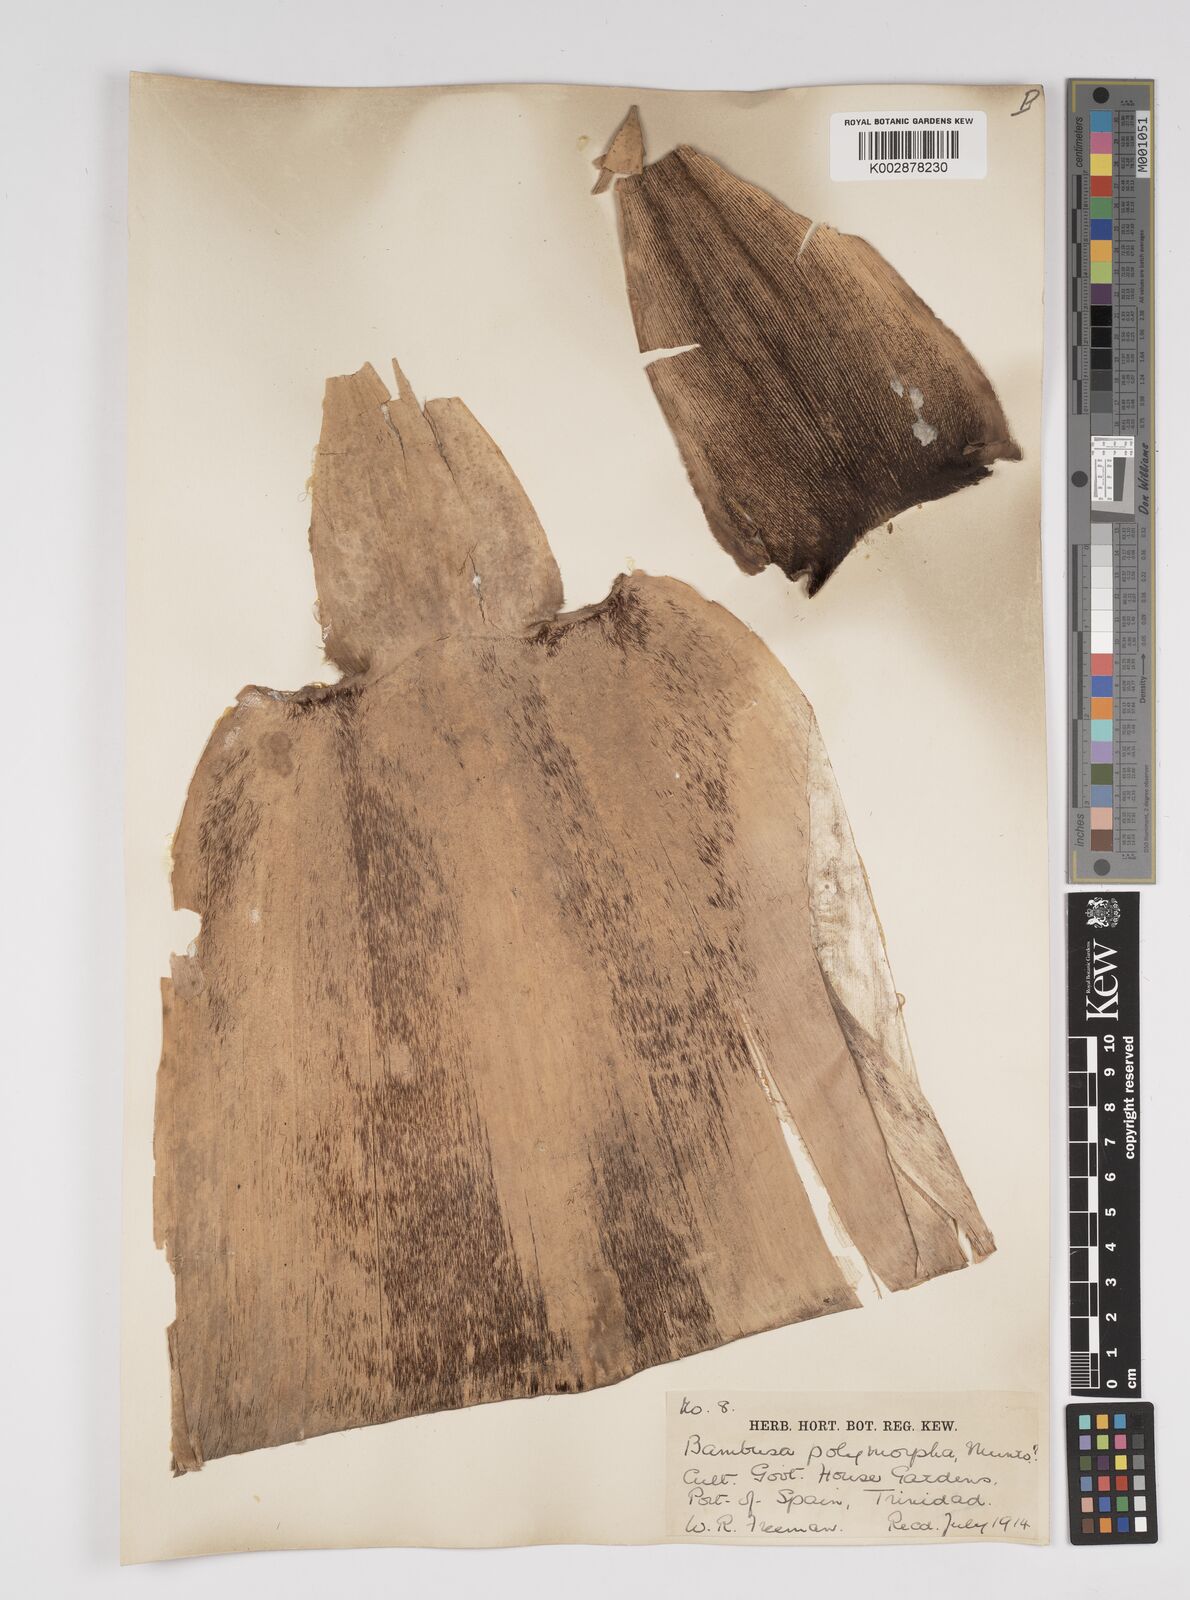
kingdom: Plantae
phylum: Tracheophyta
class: Liliopsida
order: Poales
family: Poaceae
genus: Bambusa
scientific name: Bambusa polymorpha
